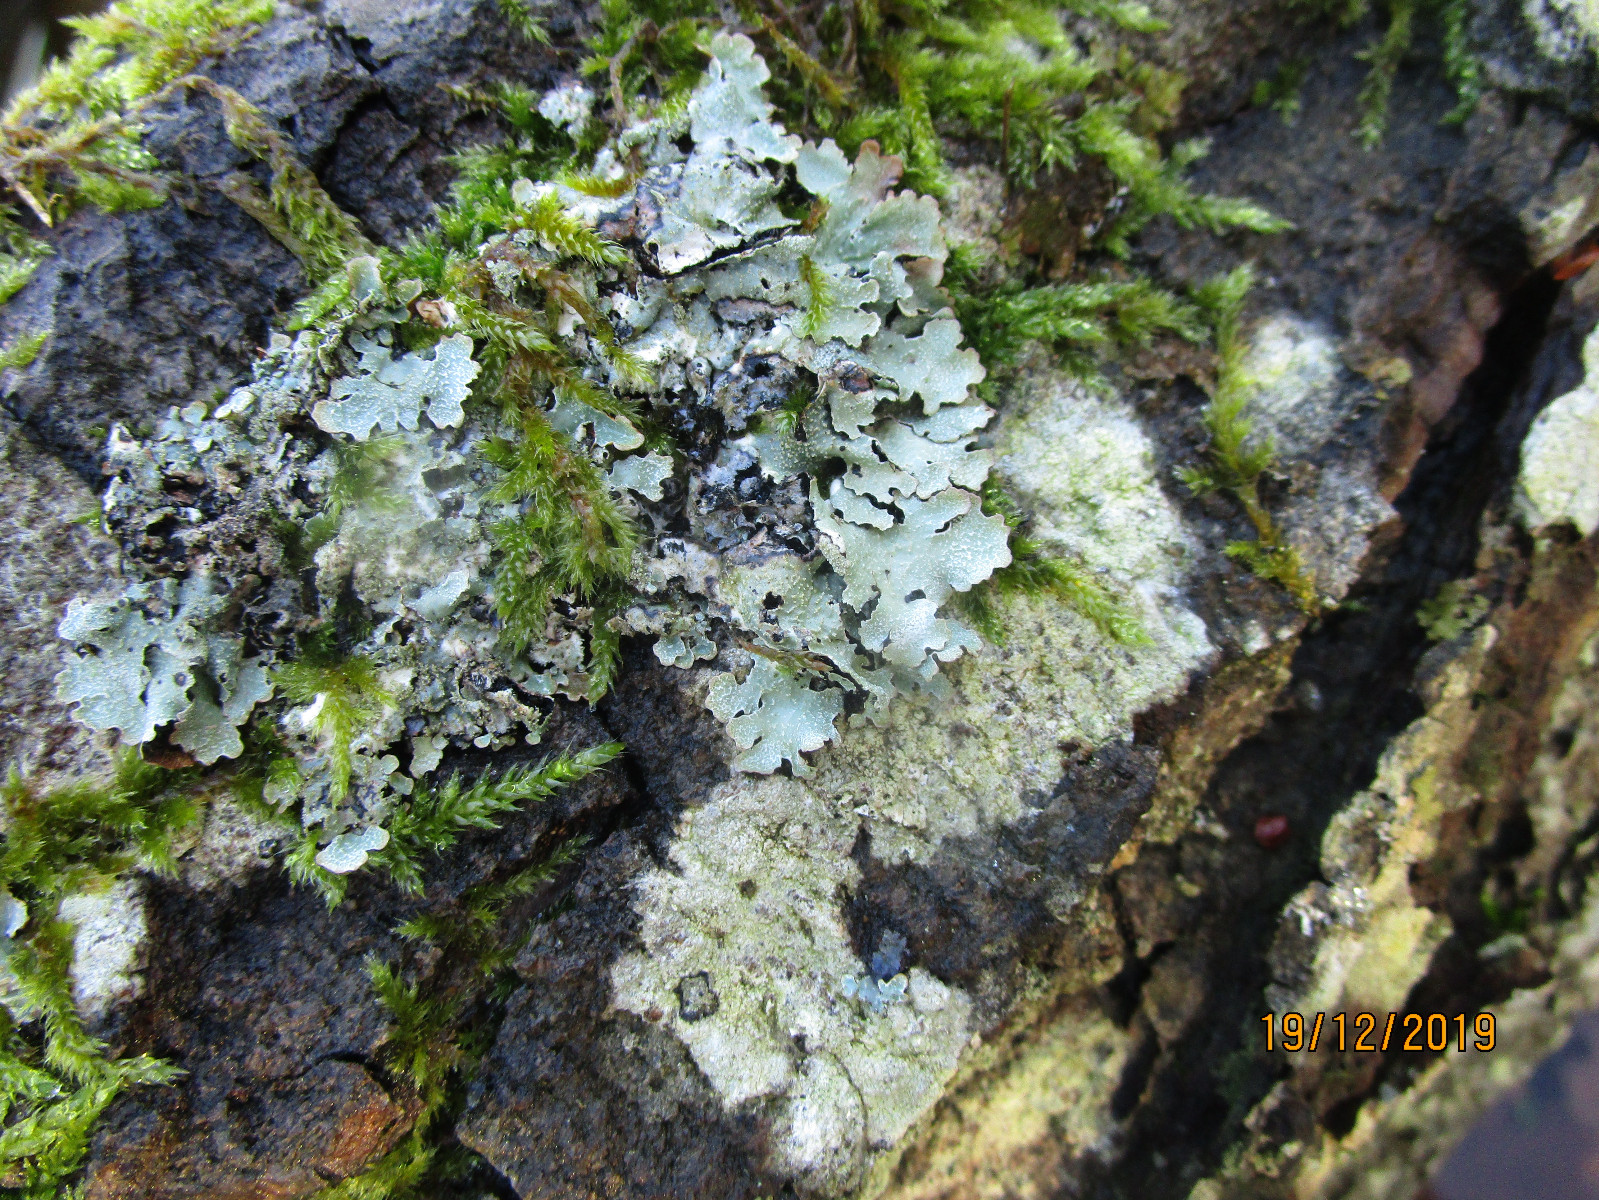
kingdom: Fungi
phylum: Ascomycota
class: Lecanoromycetes
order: Lecanorales
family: Parmeliaceae
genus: Parmelia
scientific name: Parmelia sulcata
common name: rynket skållav
